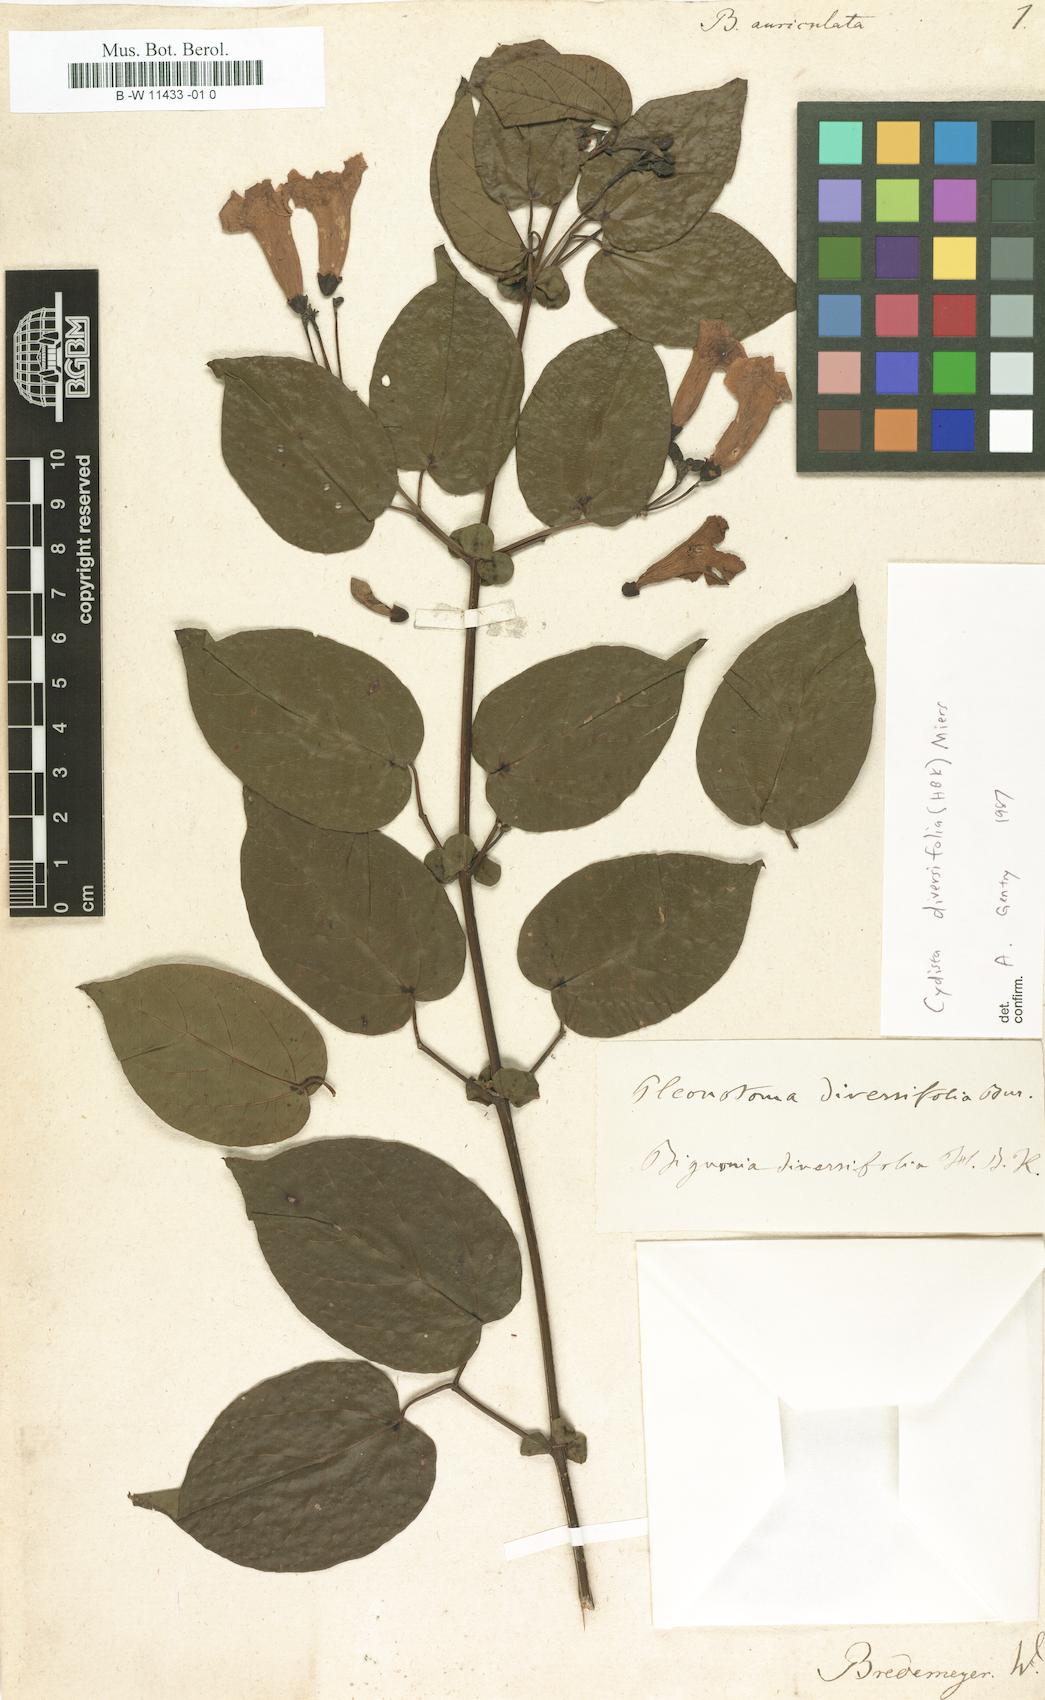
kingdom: Plantae
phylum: Tracheophyta
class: Magnoliopsida
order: Lamiales
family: Bignoniaceae
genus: Bignonia
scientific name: Bignonia
